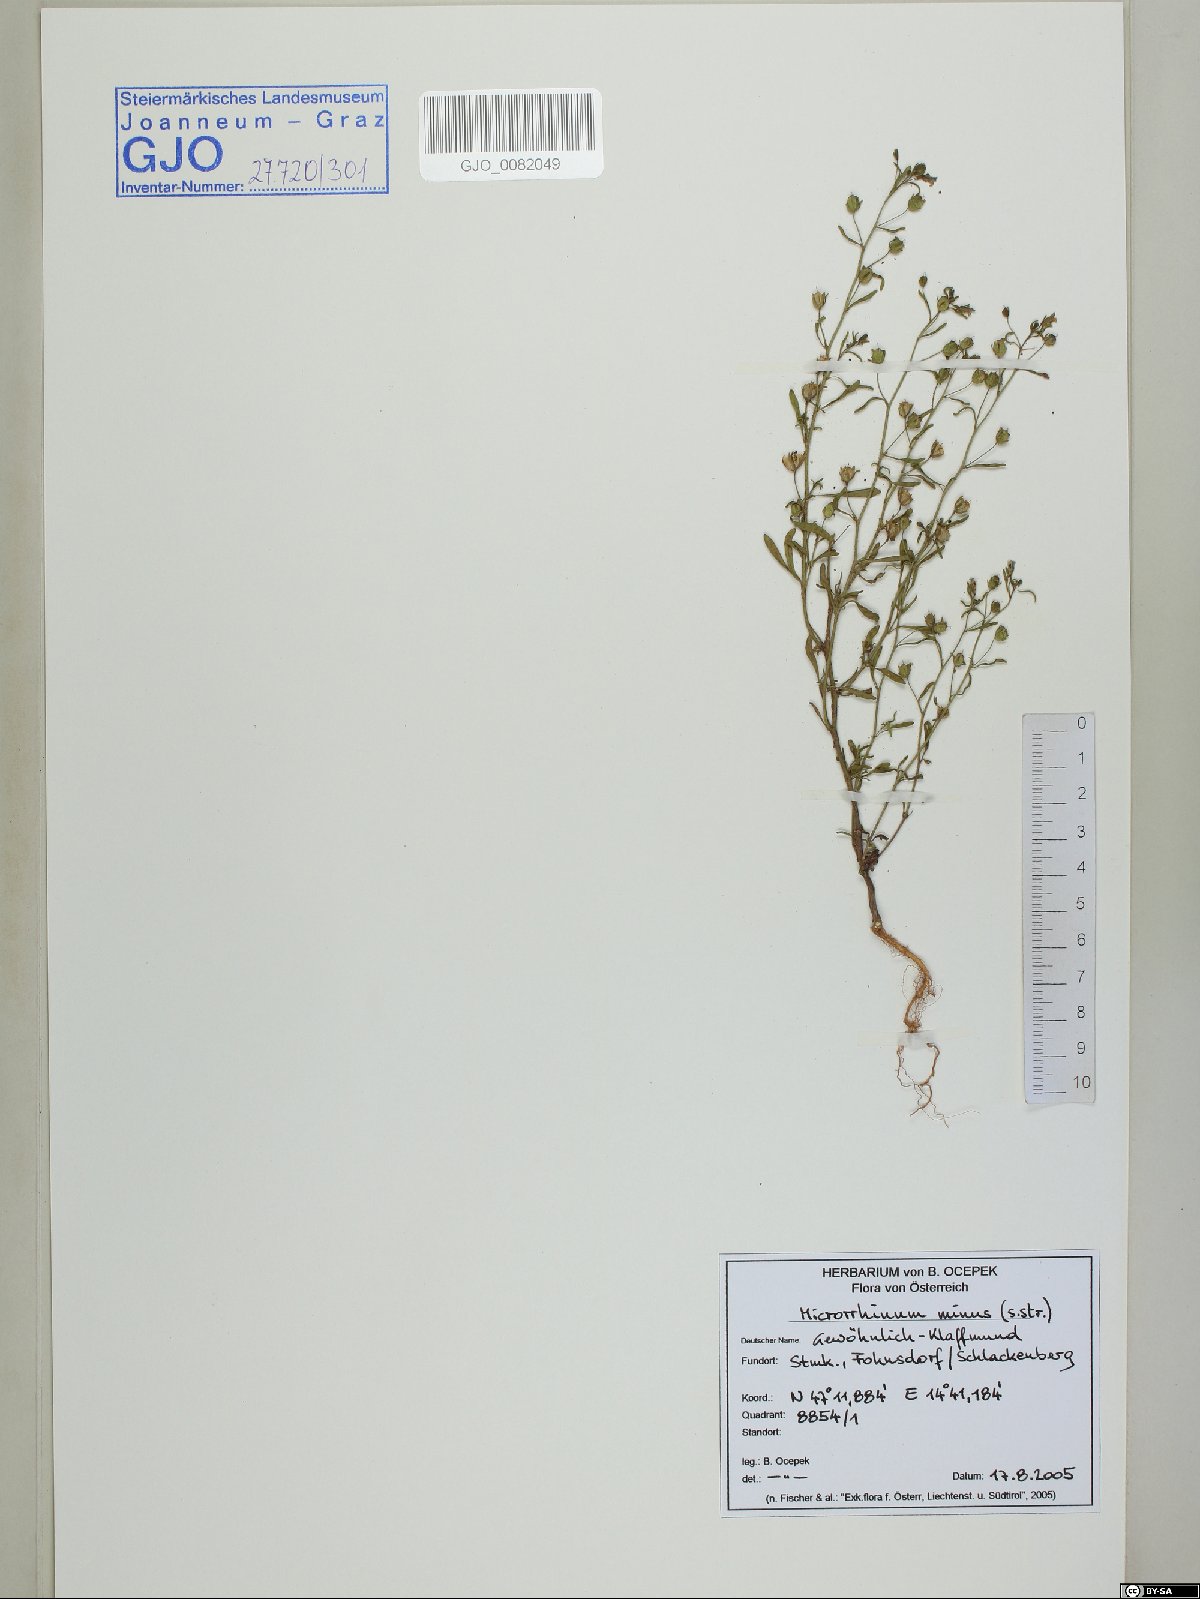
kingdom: Plantae
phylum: Tracheophyta
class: Magnoliopsida
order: Lamiales
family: Plantaginaceae
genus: Chaenorhinum
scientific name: Chaenorhinum minus
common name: Dwarf snapdragon
